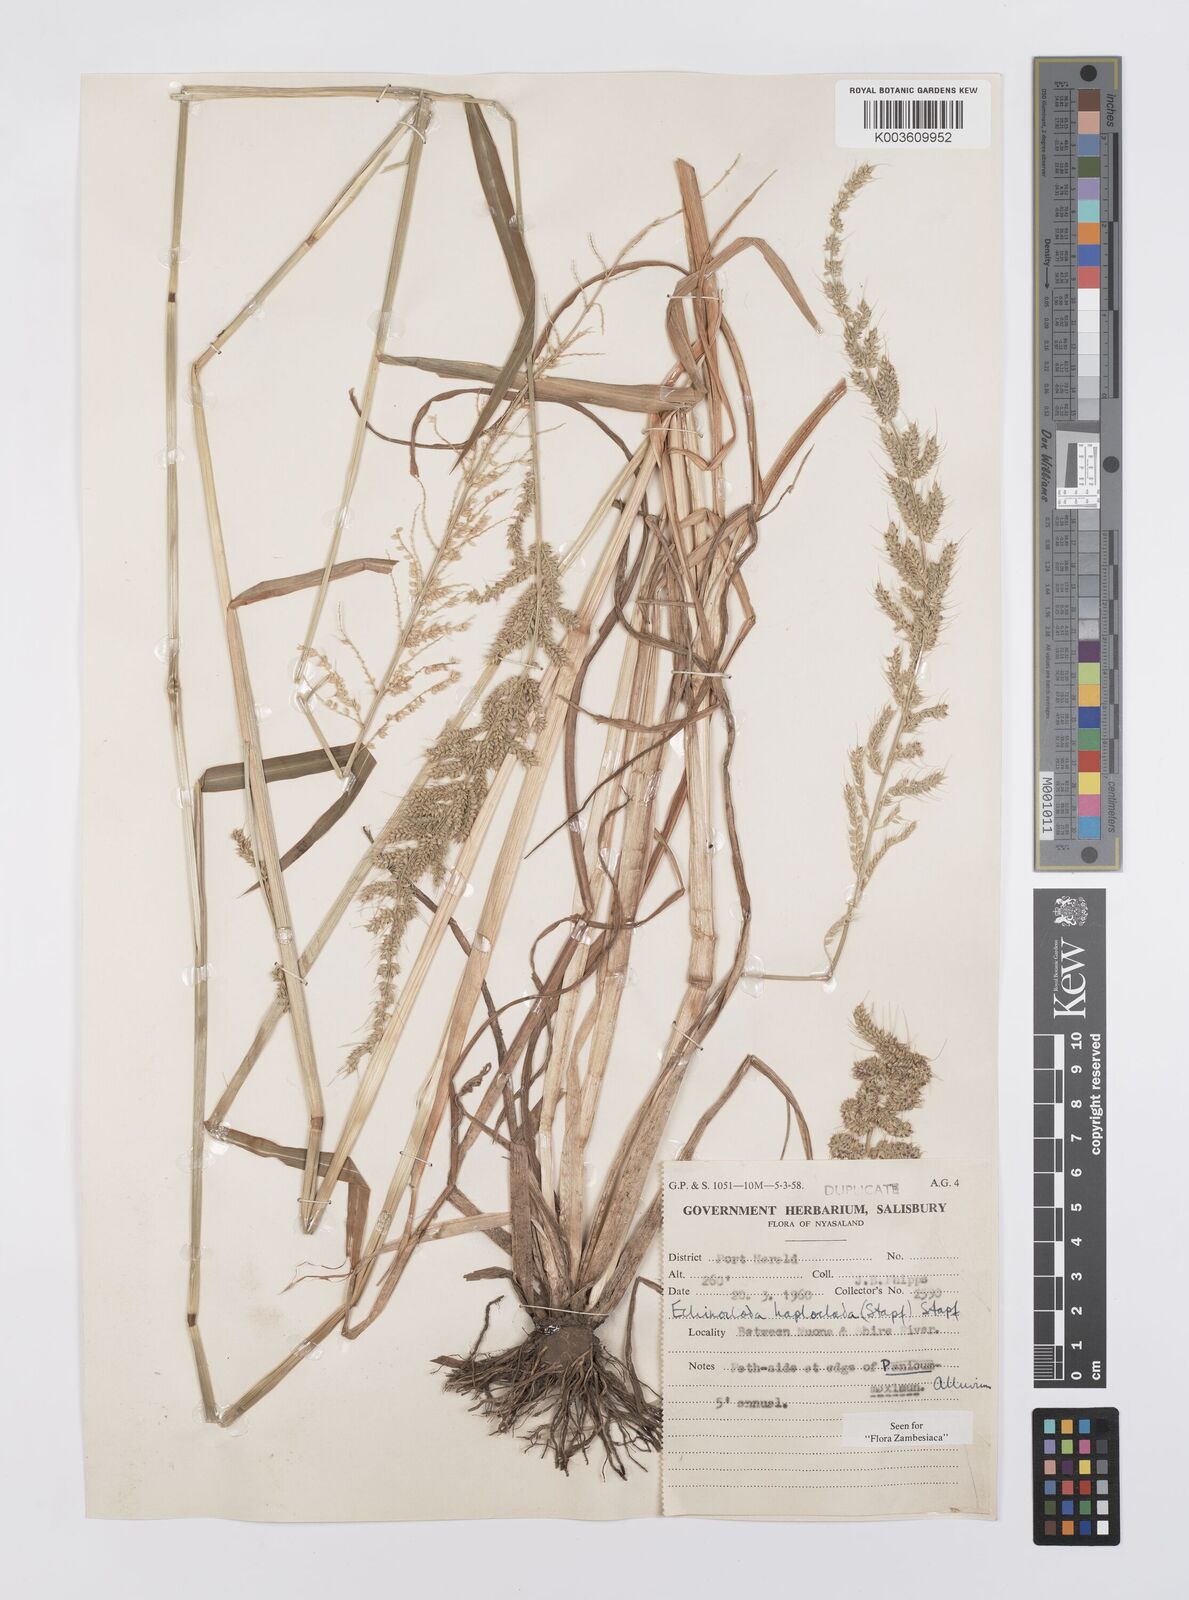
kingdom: Plantae
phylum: Tracheophyta
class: Liliopsida
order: Poales
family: Poaceae
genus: Echinochloa
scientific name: Echinochloa haploclada
